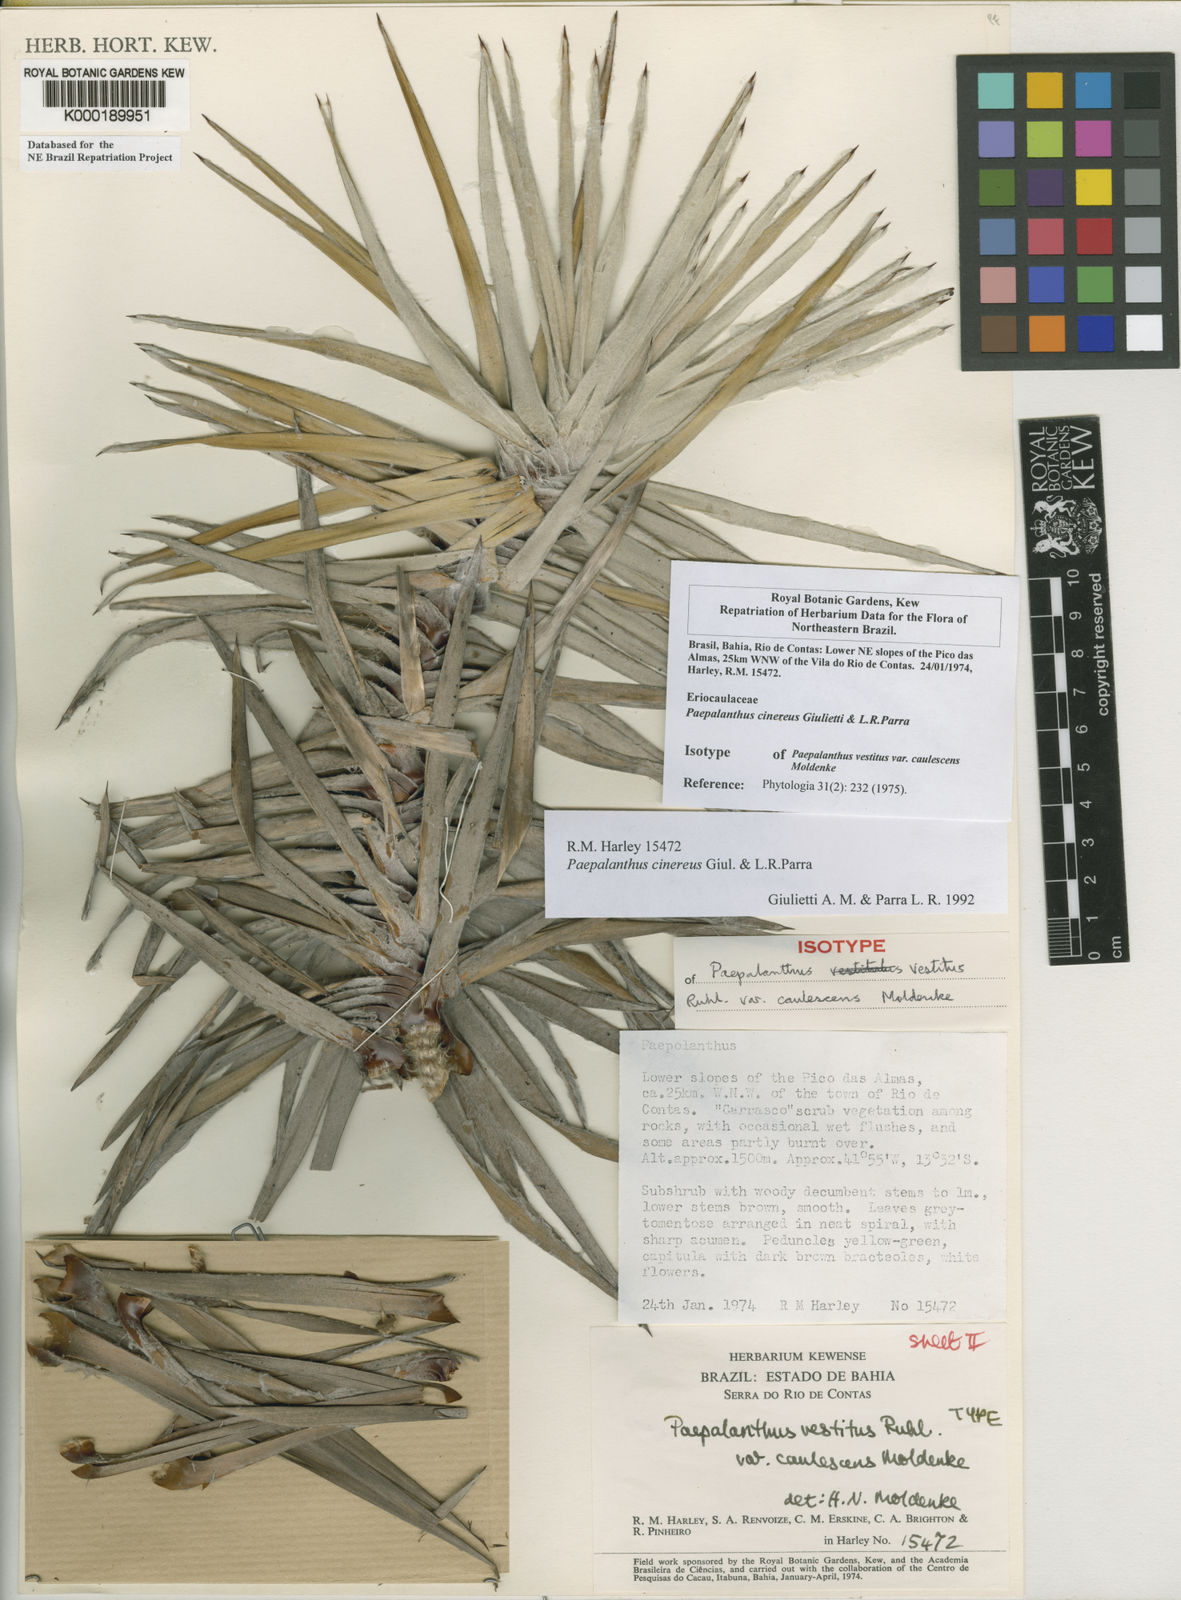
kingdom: Plantae
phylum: Tracheophyta
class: Liliopsida
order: Poales
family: Eriocaulaceae
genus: Paepalanthus
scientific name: Paepalanthus cinereus
